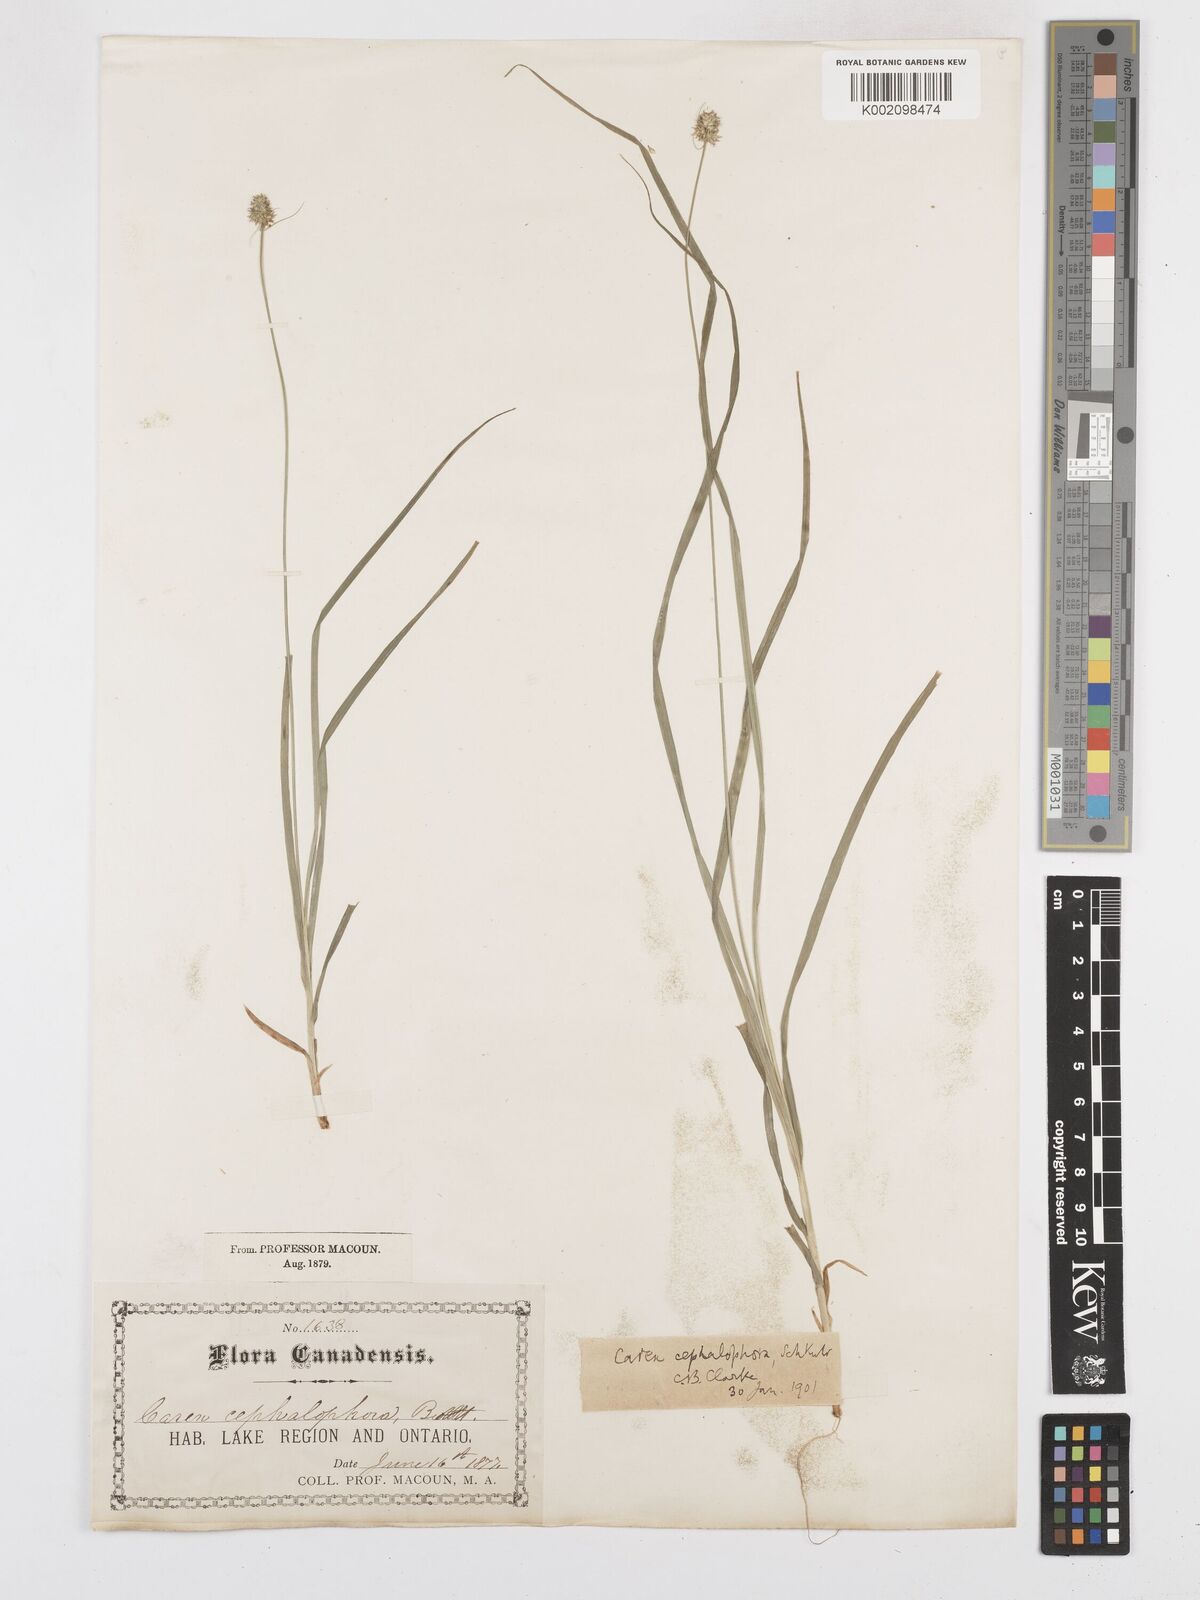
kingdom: Plantae
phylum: Tracheophyta
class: Liliopsida
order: Poales
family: Cyperaceae
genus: Carex
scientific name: Carex cephalophora
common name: Oval-headed sedge
